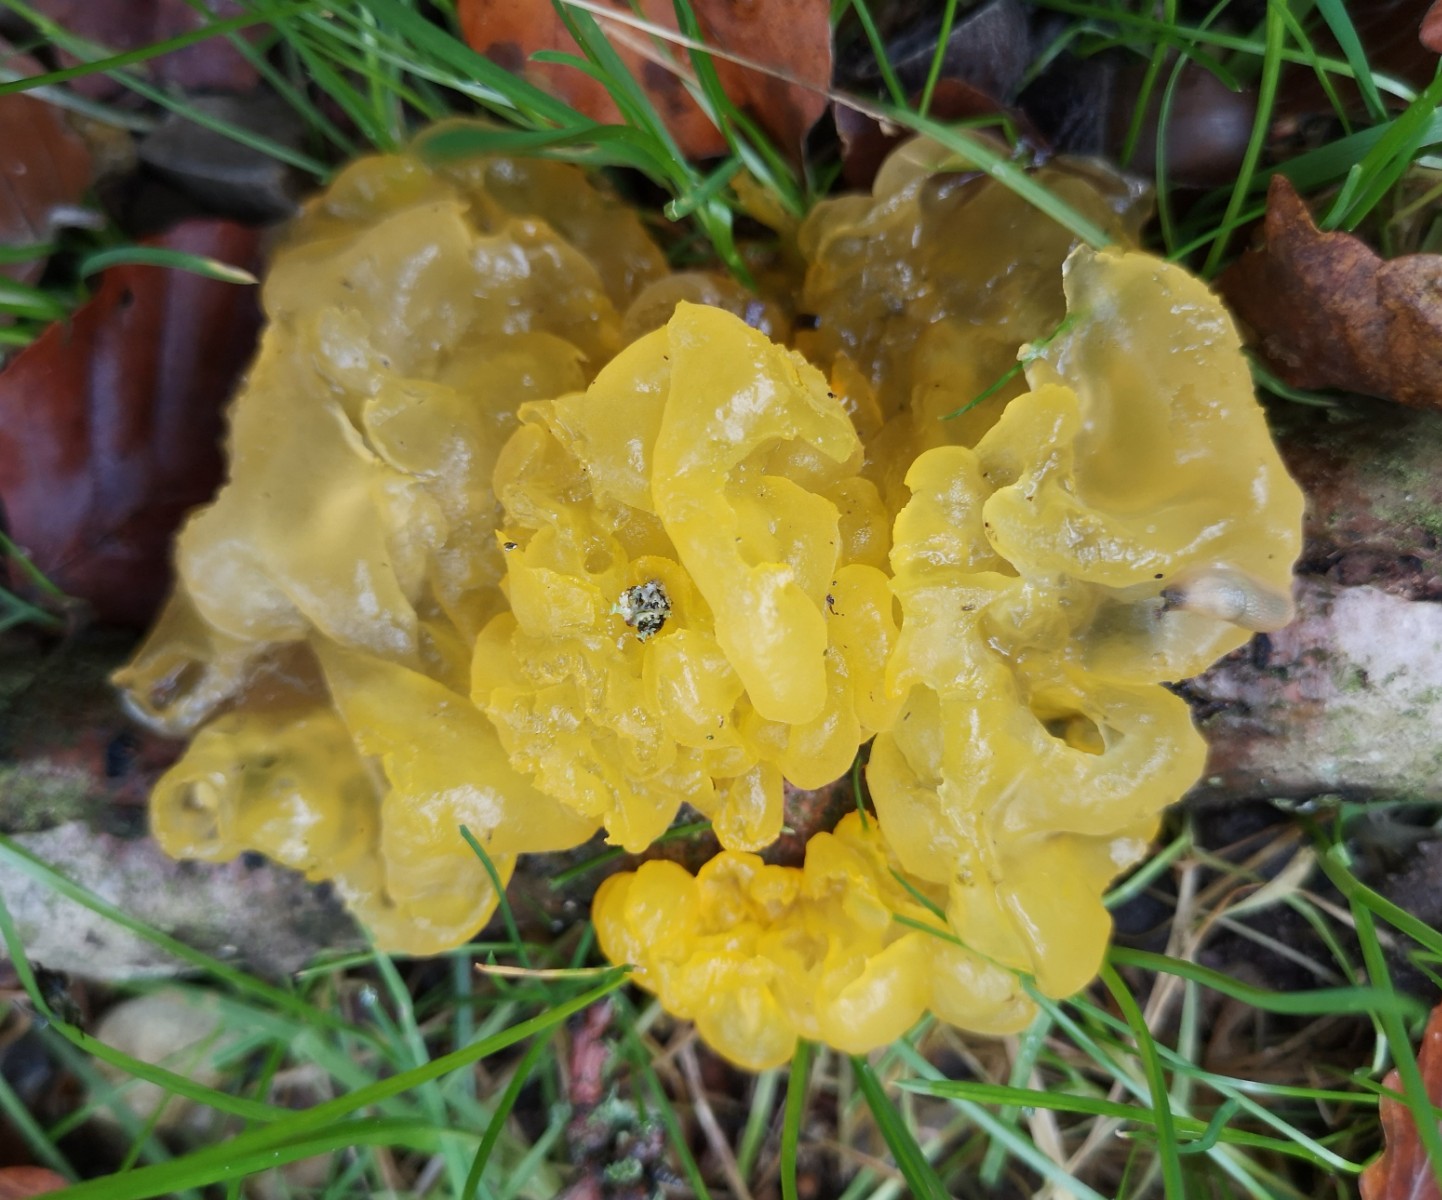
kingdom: Fungi
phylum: Basidiomycota
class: Tremellomycetes
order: Tremellales
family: Tremellaceae
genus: Tremella
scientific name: Tremella mesenterica
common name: gul bævresvamp
